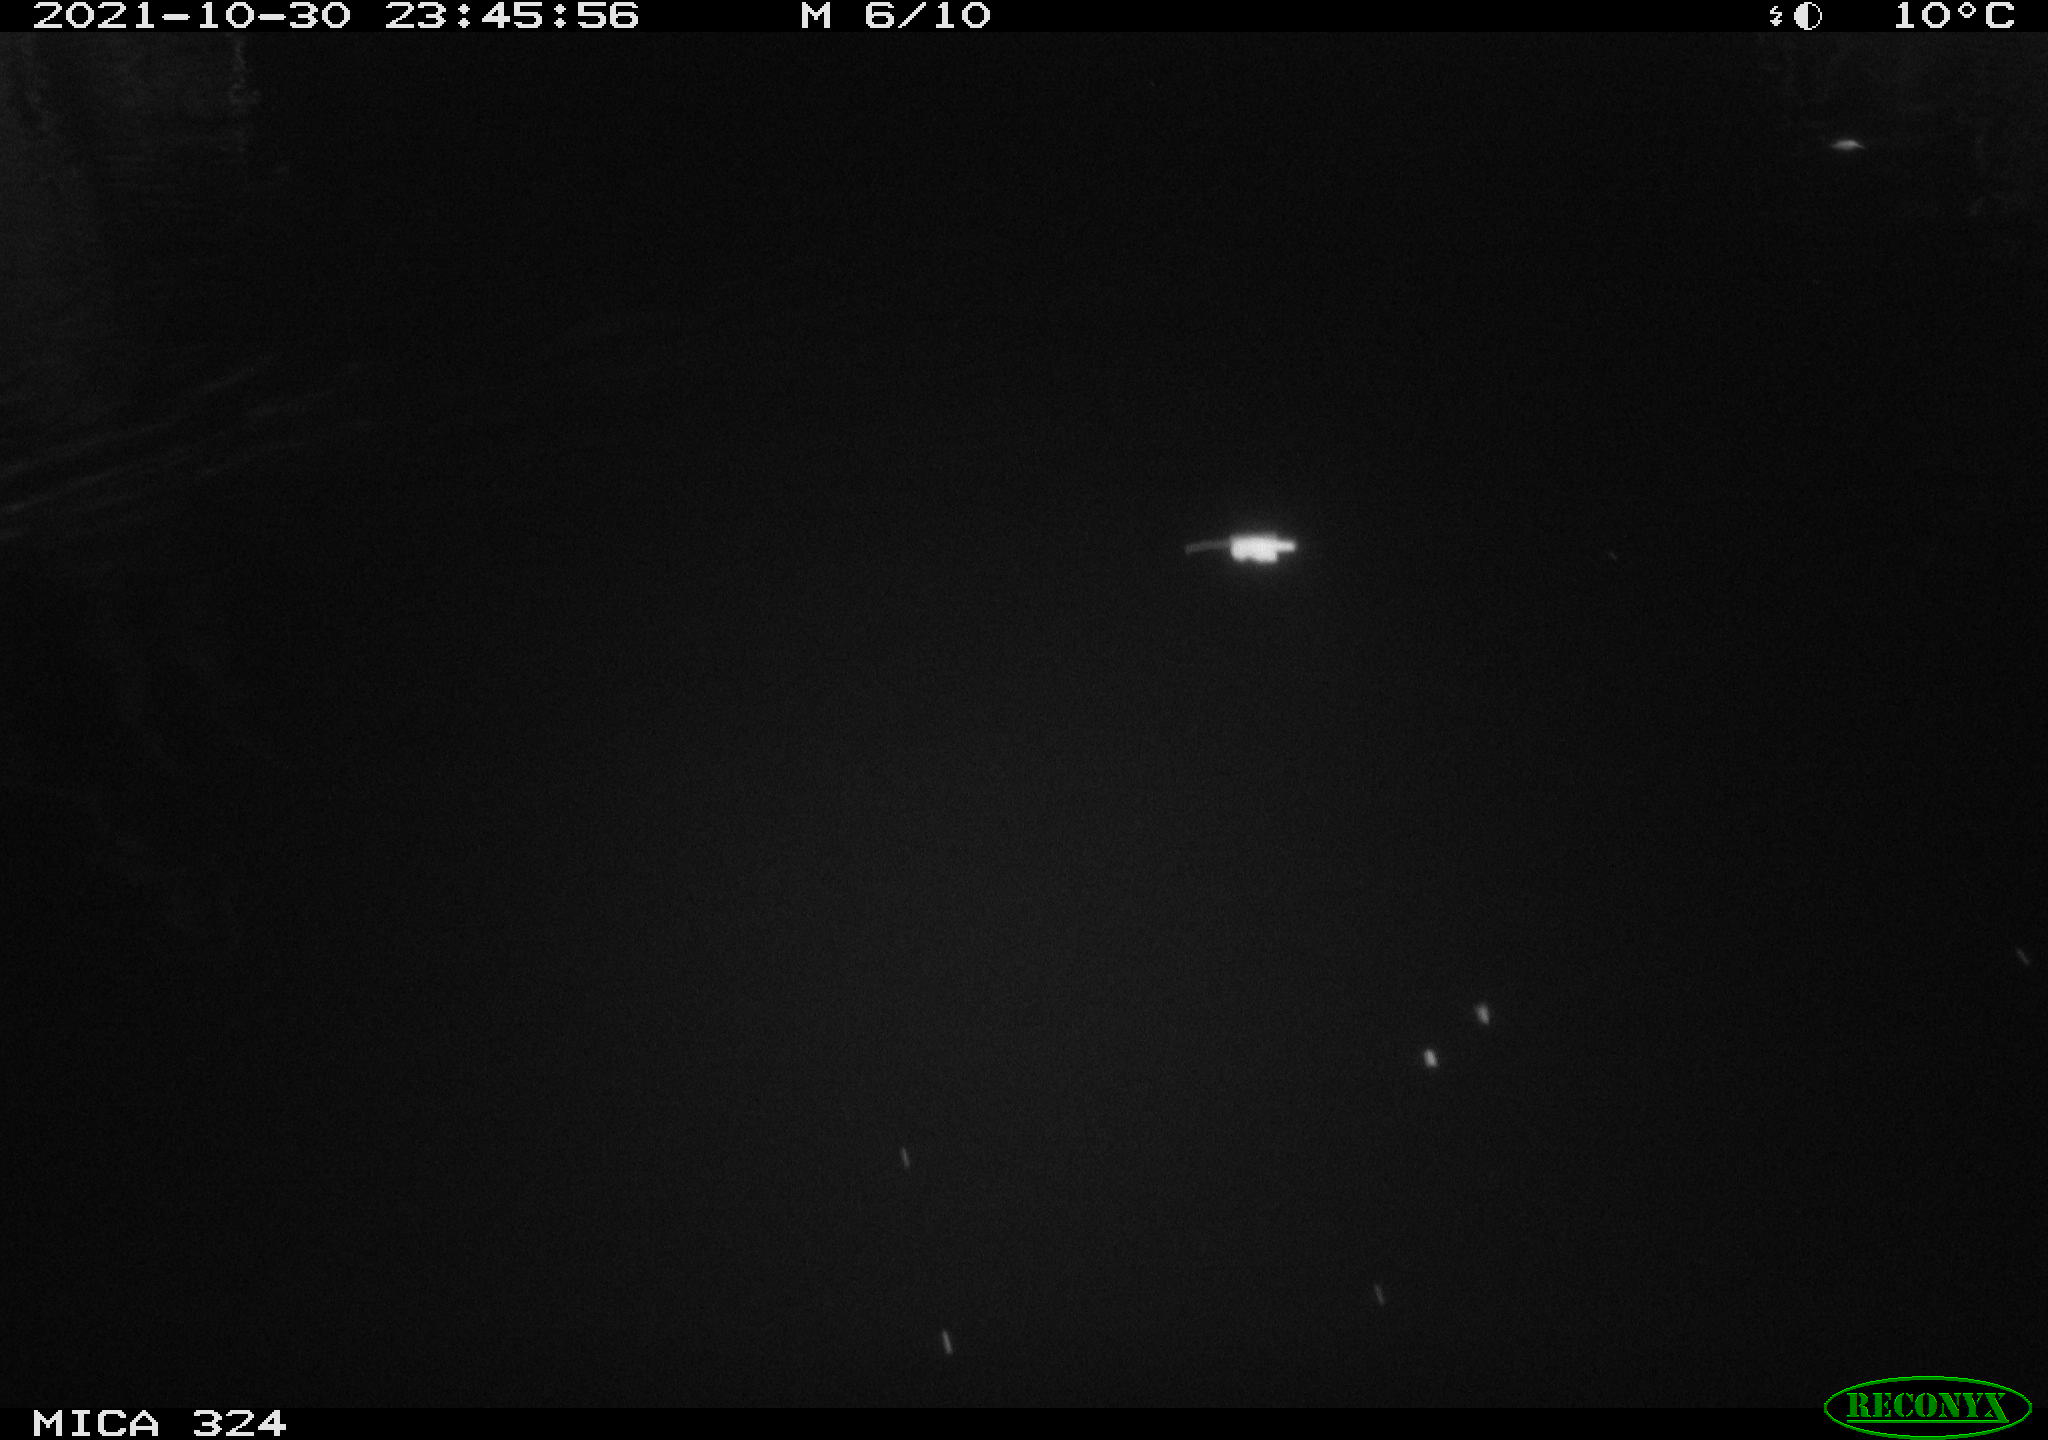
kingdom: Animalia
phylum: Chordata
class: Mammalia
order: Rodentia
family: Cricetidae
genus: Ondatra
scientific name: Ondatra zibethicus
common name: Muskrat
